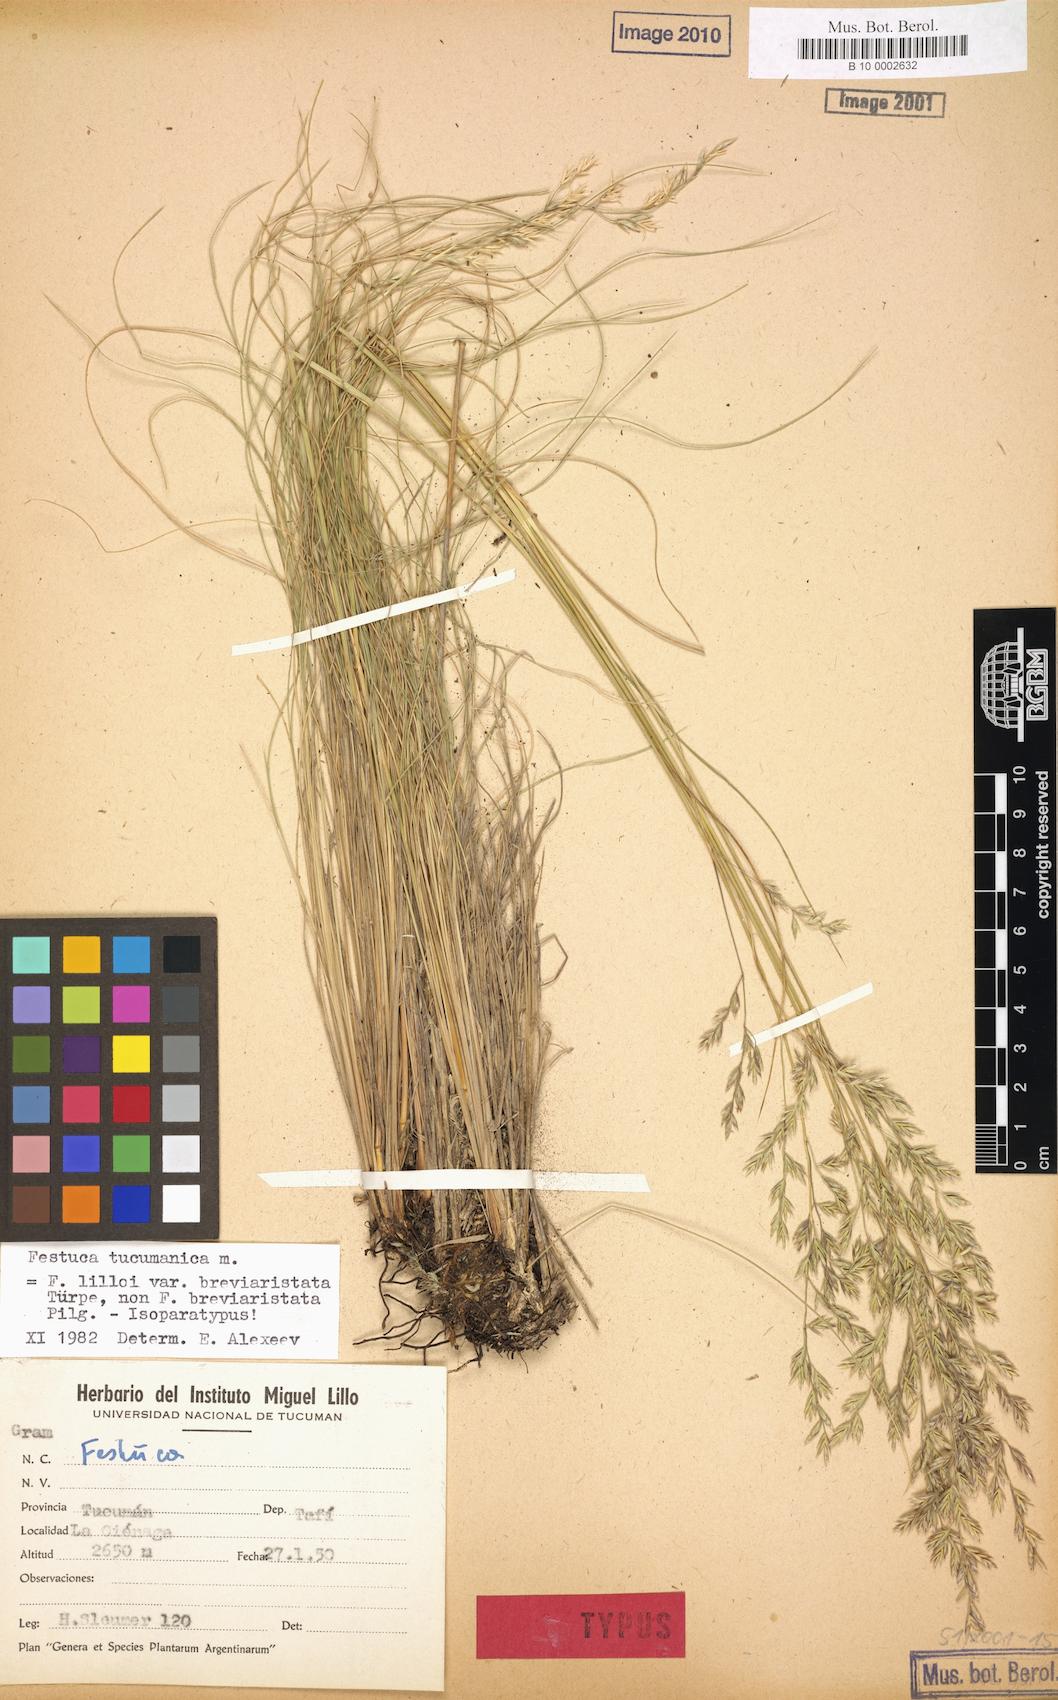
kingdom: Plantae
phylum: Tracheophyta
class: Liliopsida
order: Poales
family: Poaceae
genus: Festuca
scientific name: Festuca lilloi
